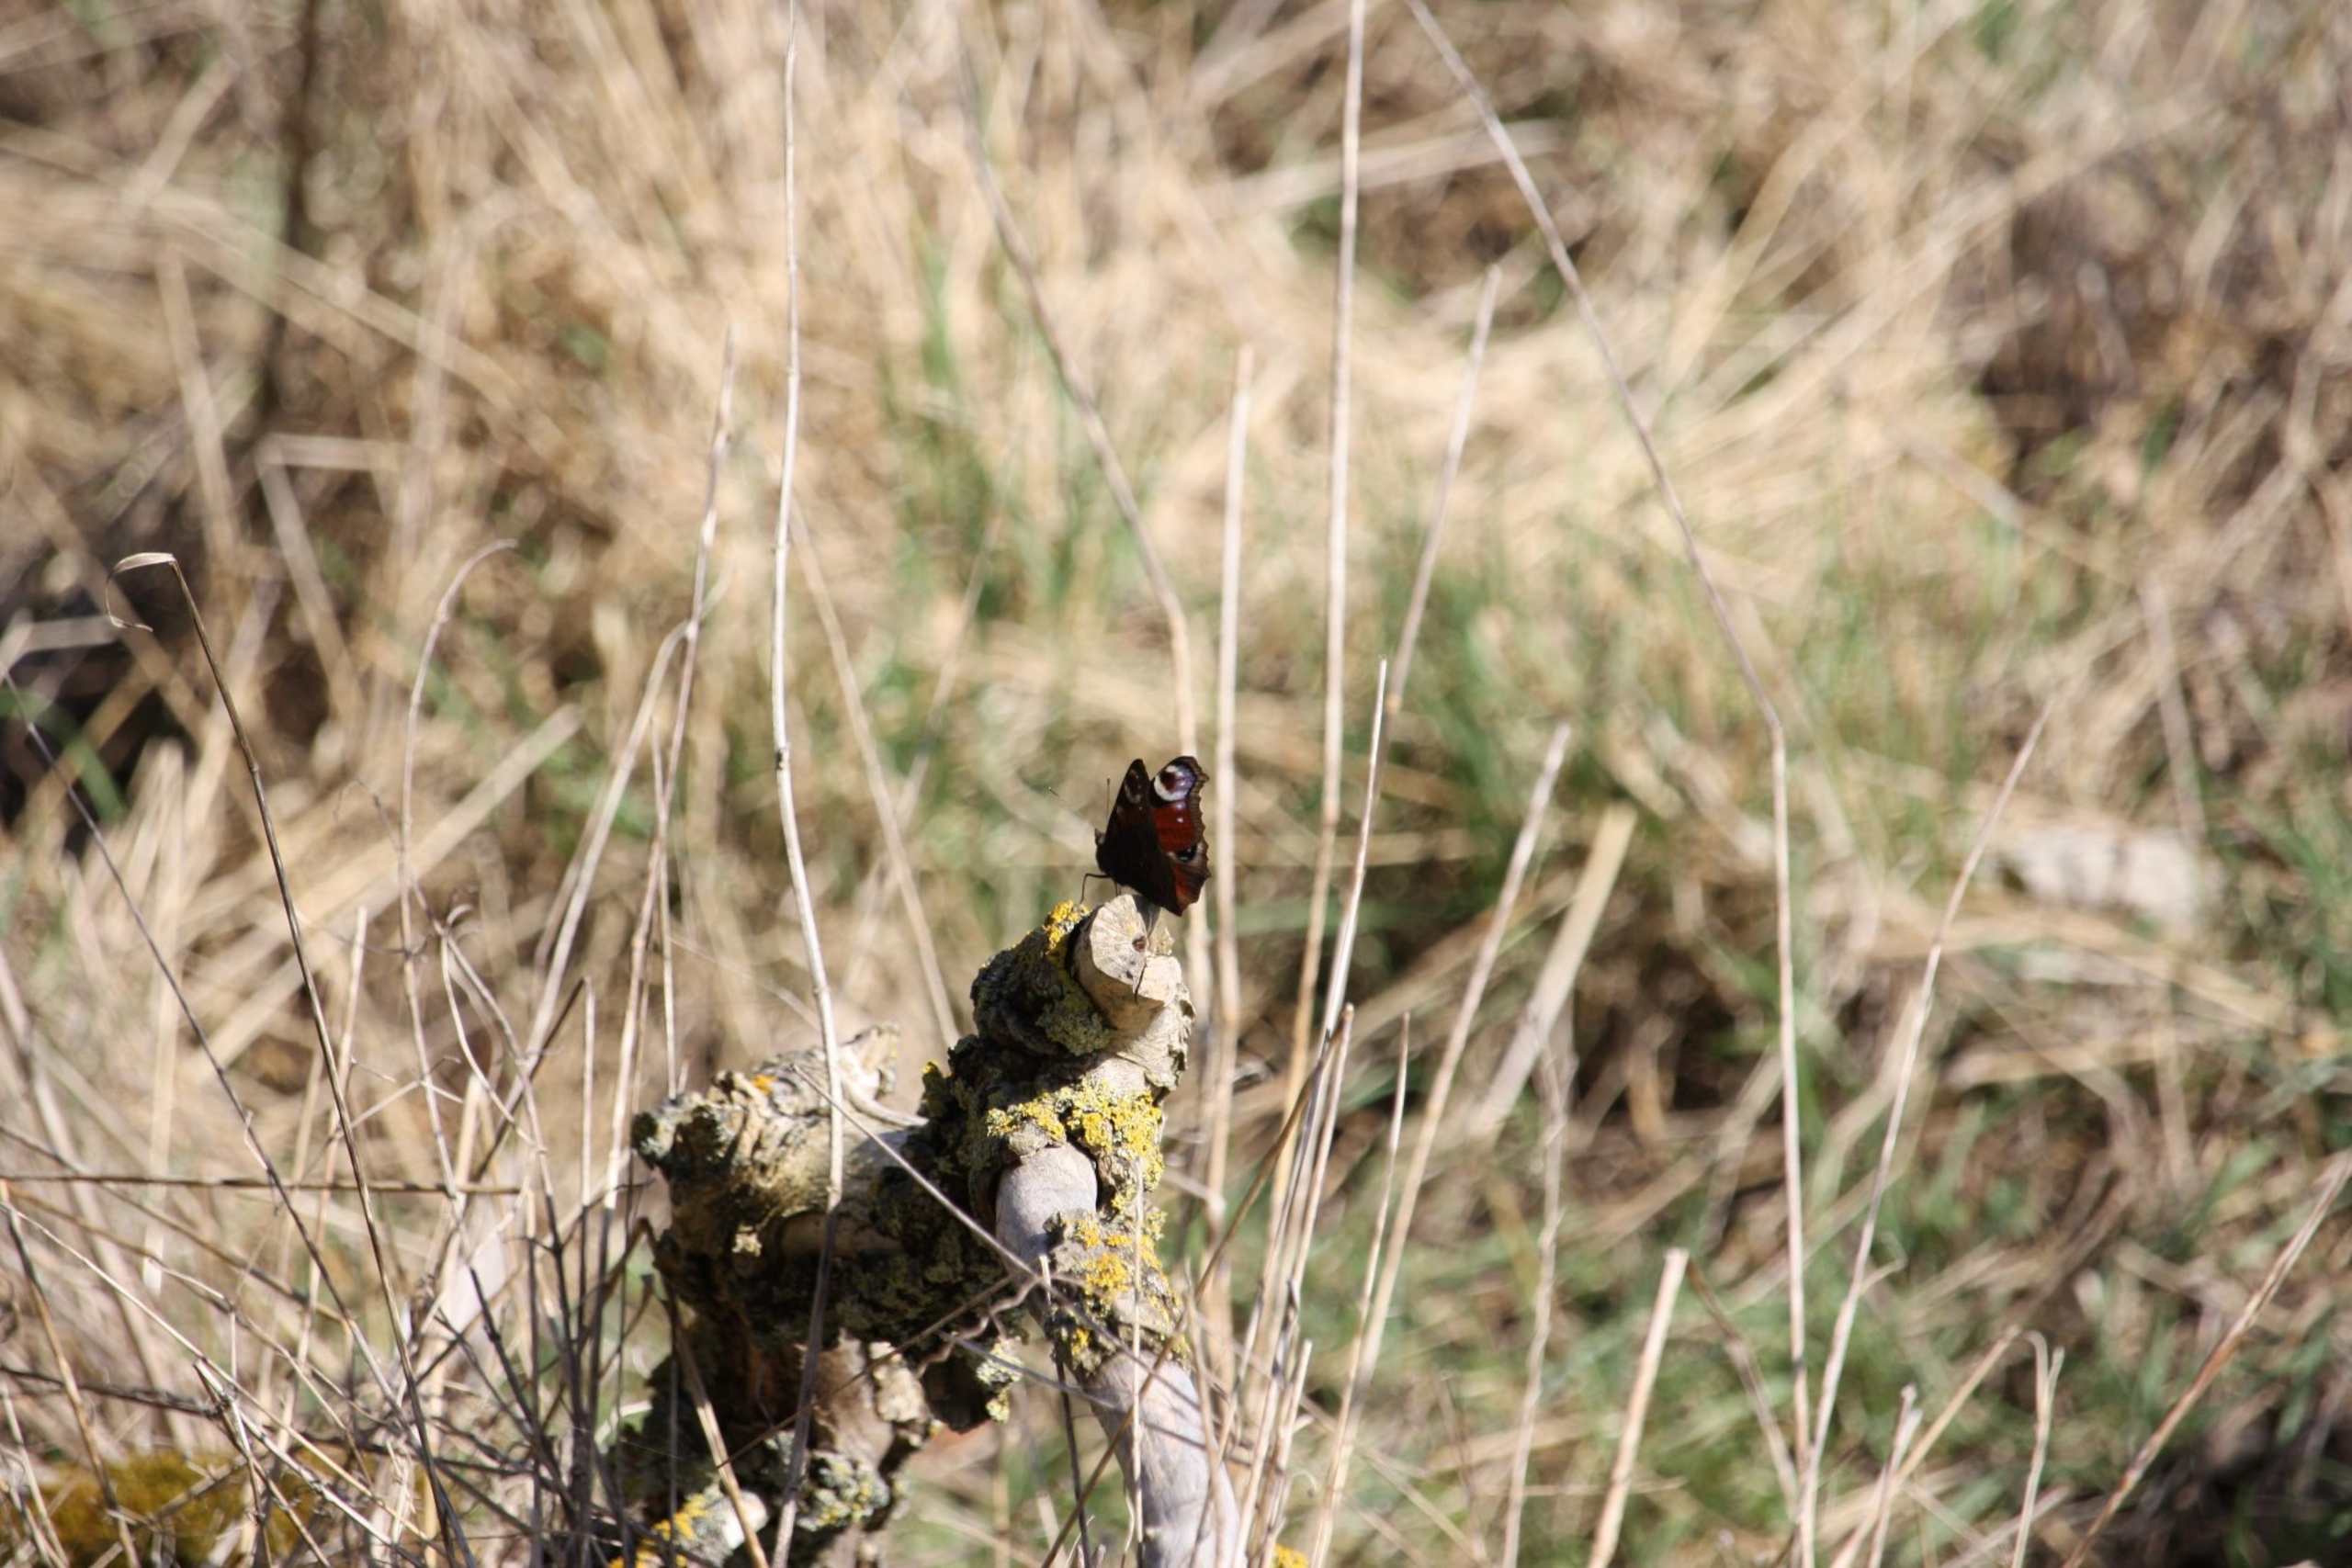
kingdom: Animalia
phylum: Arthropoda
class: Insecta
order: Lepidoptera
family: Nymphalidae
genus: Aglais
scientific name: Aglais io
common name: Dagpåfugleøje
